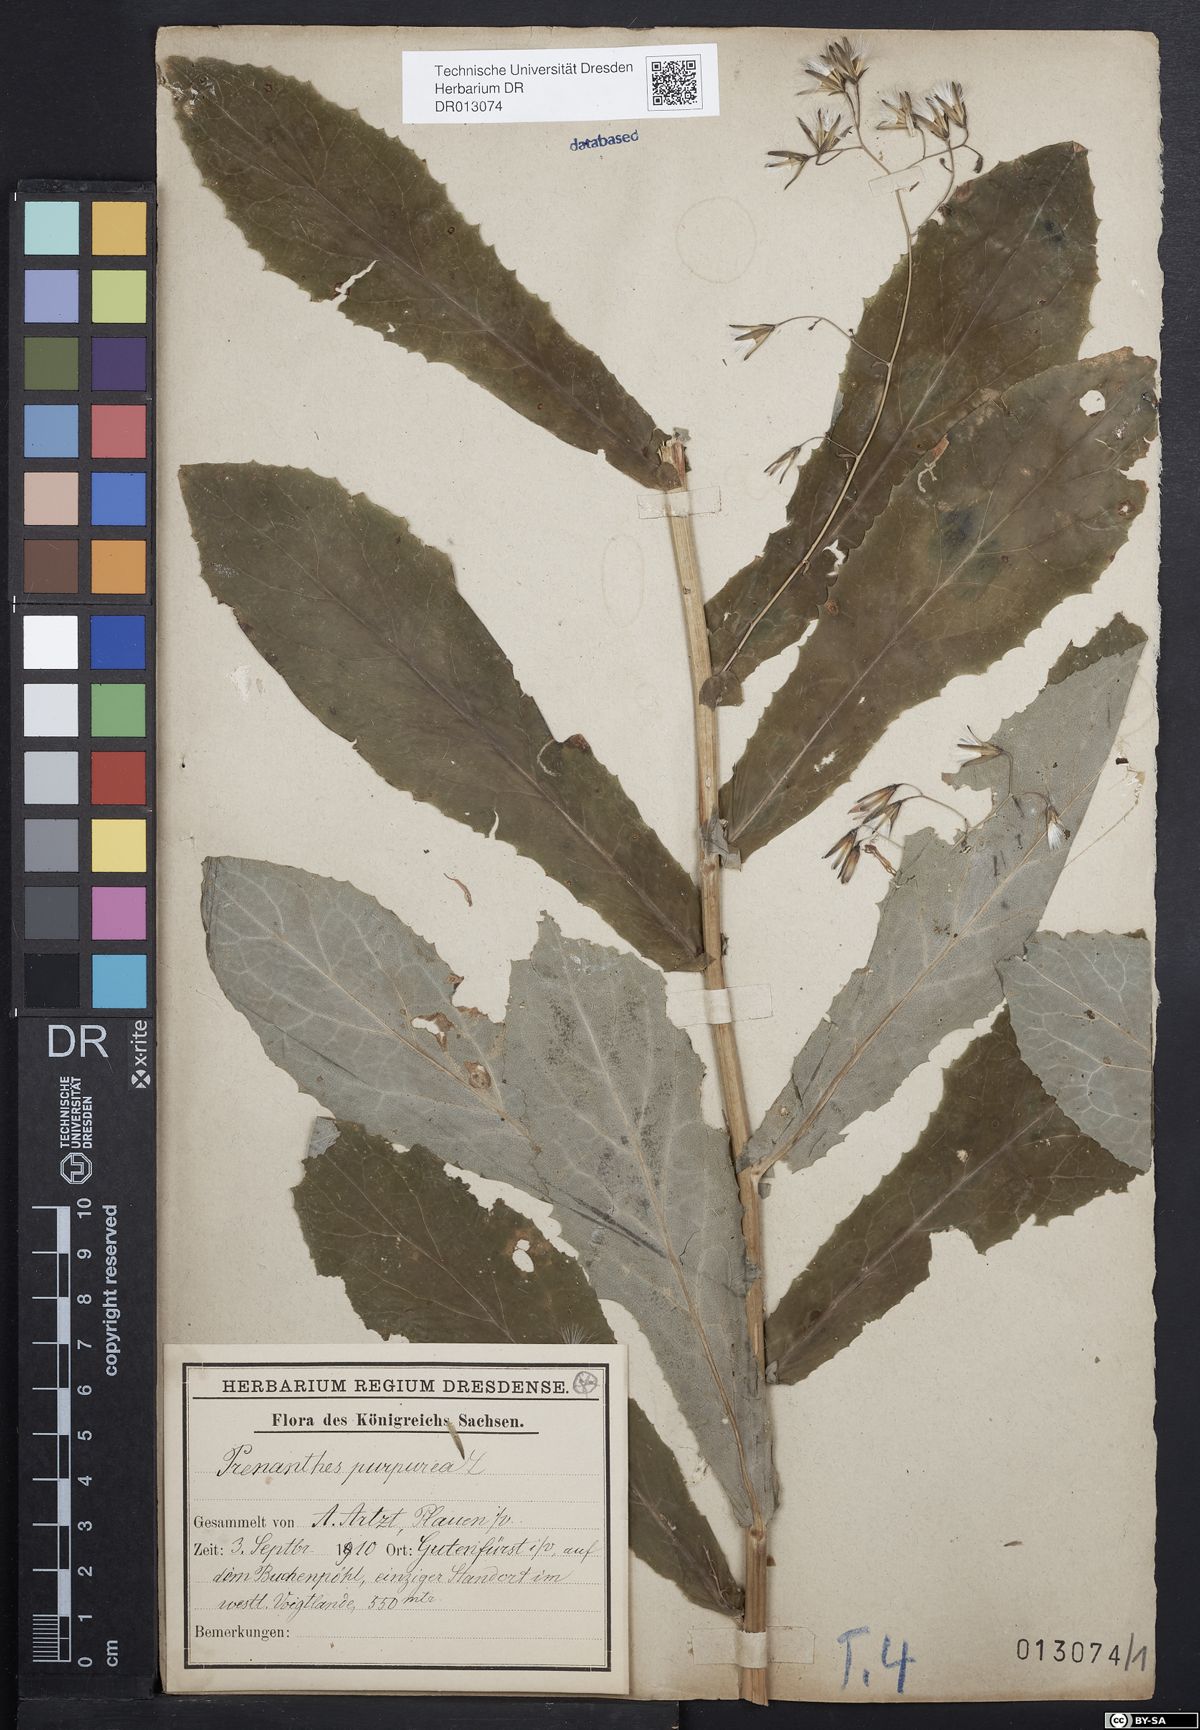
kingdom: Plantae
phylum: Tracheophyta
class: Magnoliopsida
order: Asterales
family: Asteraceae
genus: Prenanthes
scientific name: Prenanthes purpurea
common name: Purple lettuce
